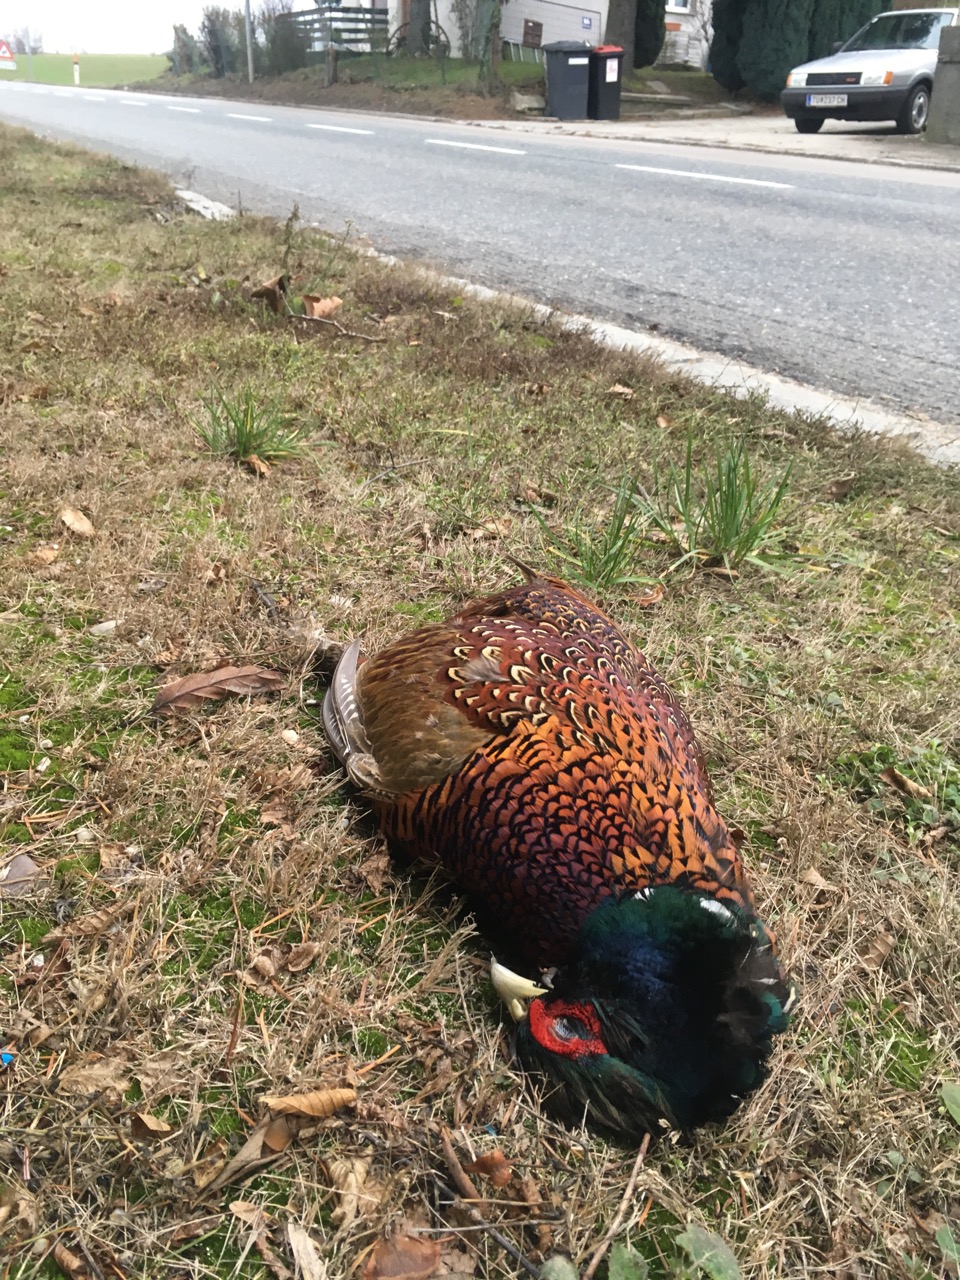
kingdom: Animalia
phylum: Chordata
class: Aves
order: Galliformes
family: Phasianidae
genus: Phasianus
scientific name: Phasianus colchicus
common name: Common pheasant
